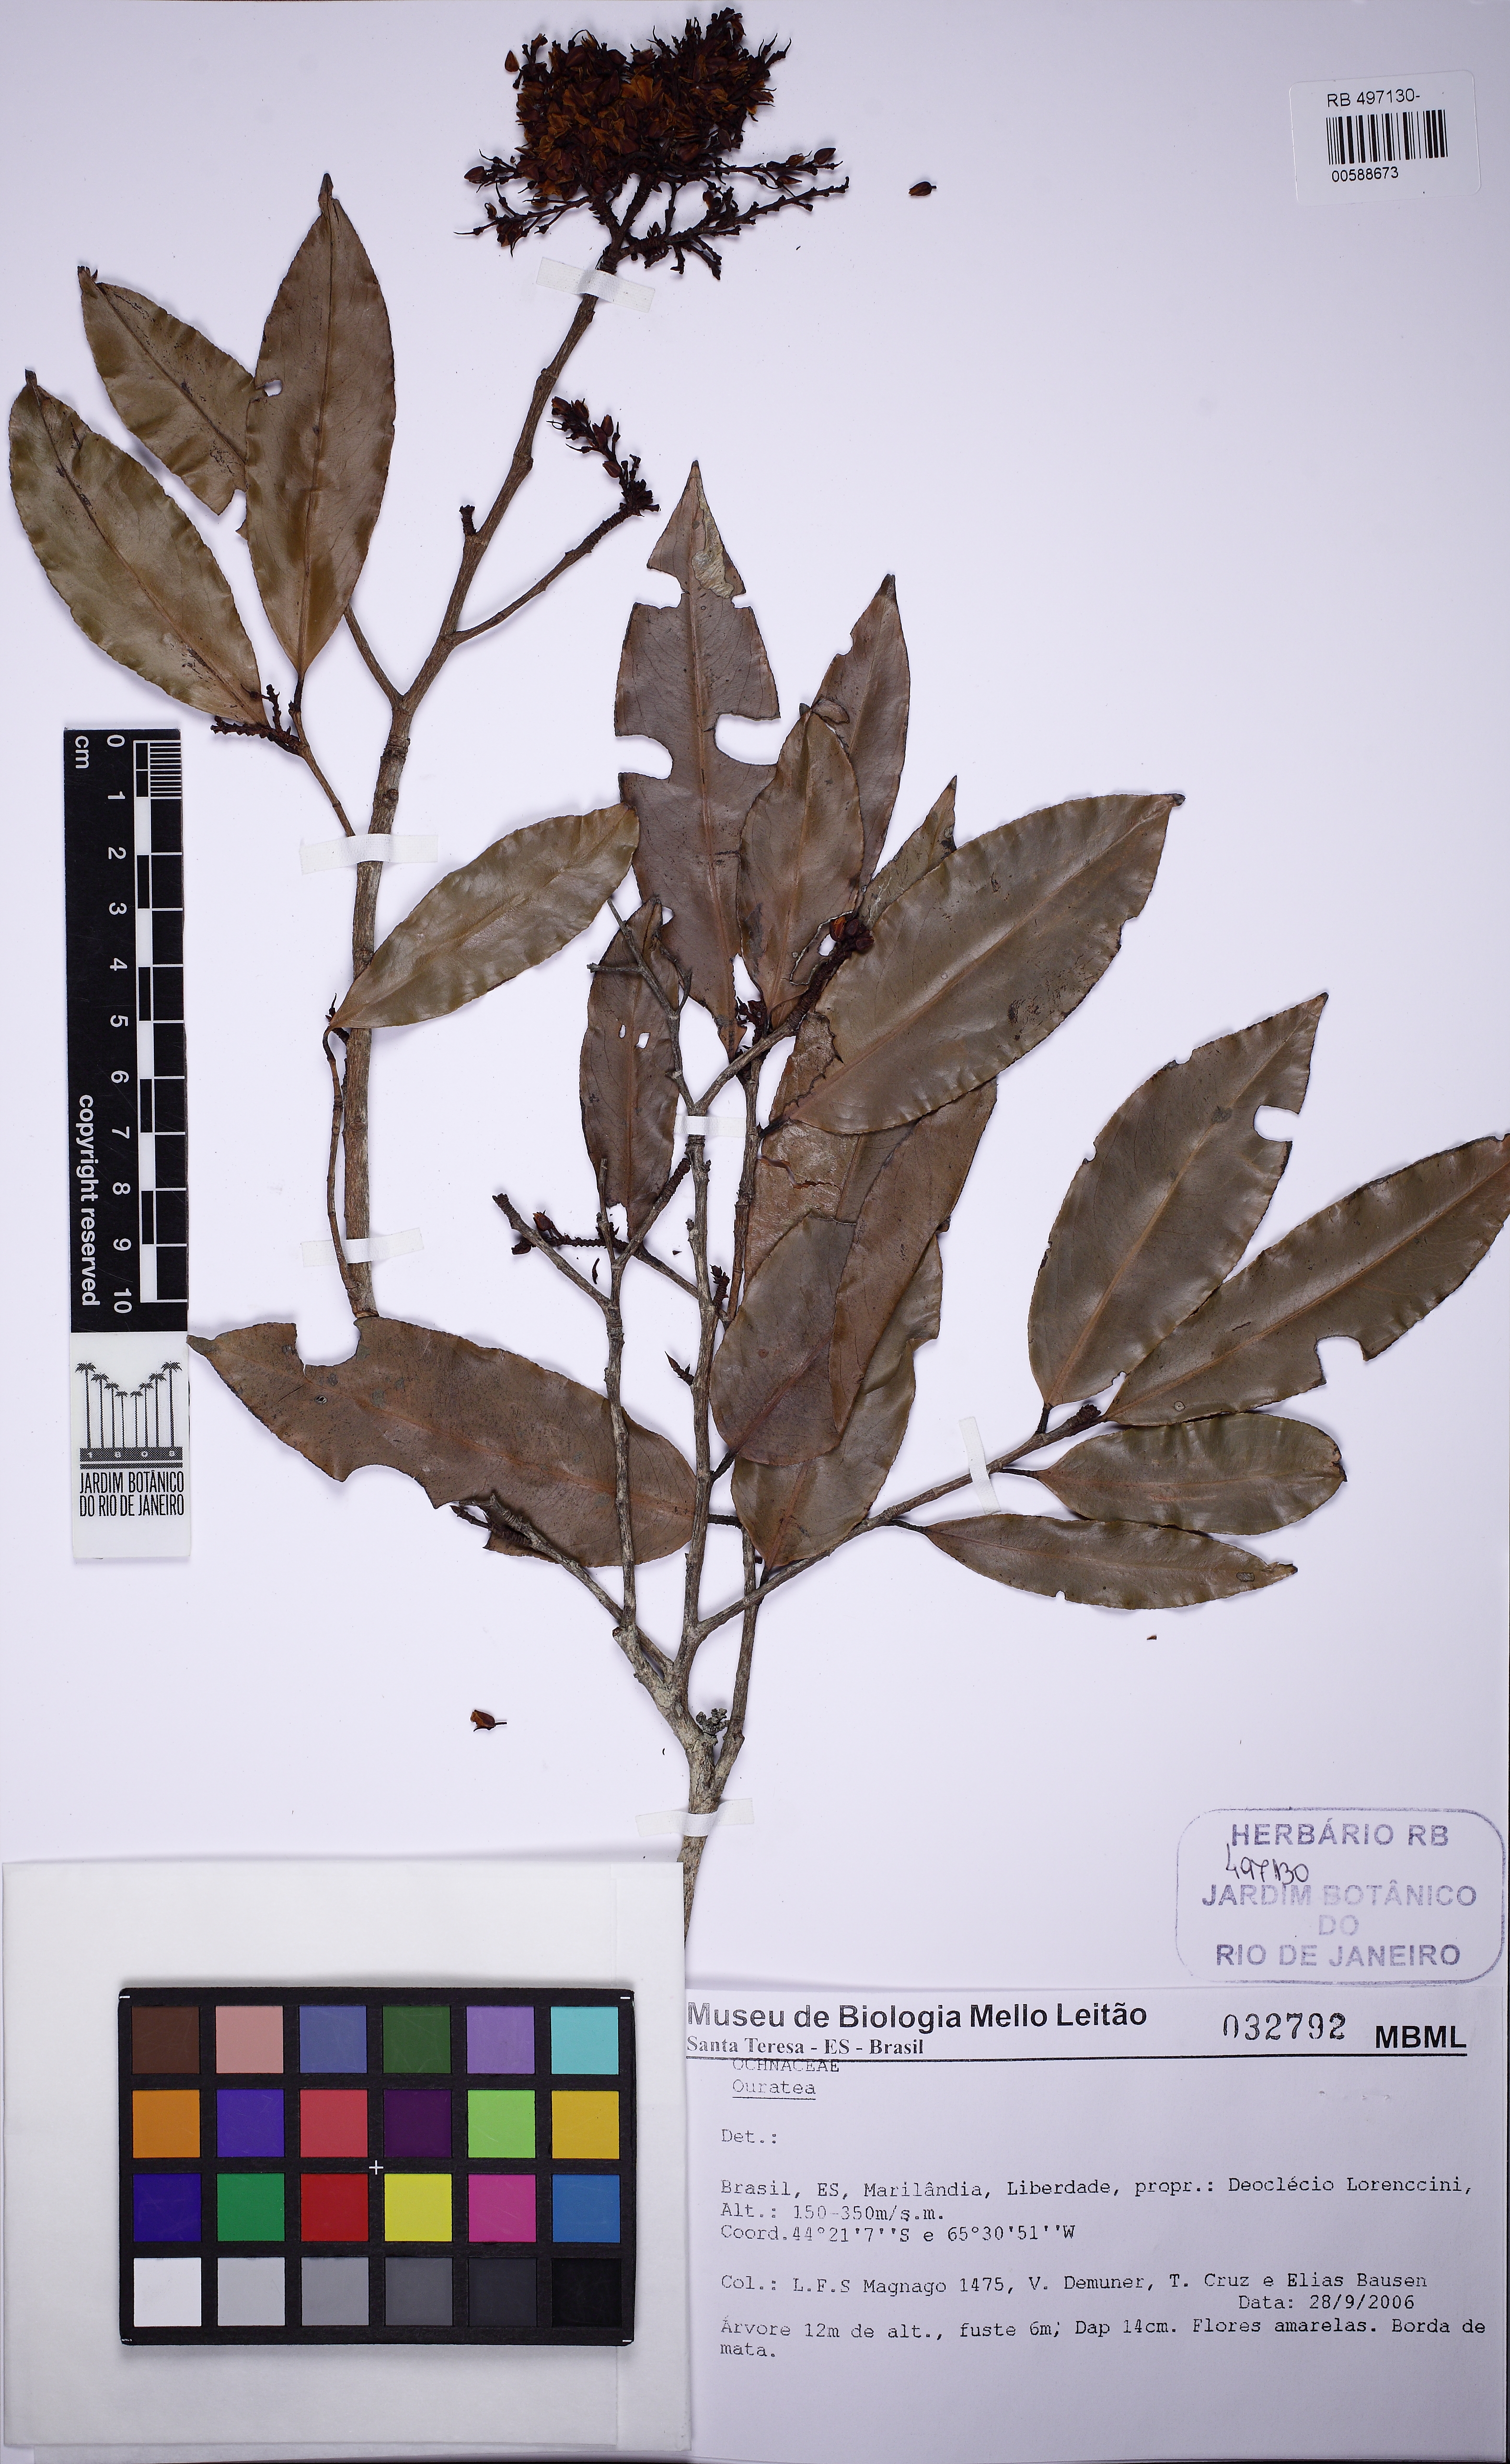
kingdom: Plantae
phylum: Tracheophyta
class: Magnoliopsida
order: Malpighiales
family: Ochnaceae
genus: Ouratea
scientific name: Ouratea polygyna
